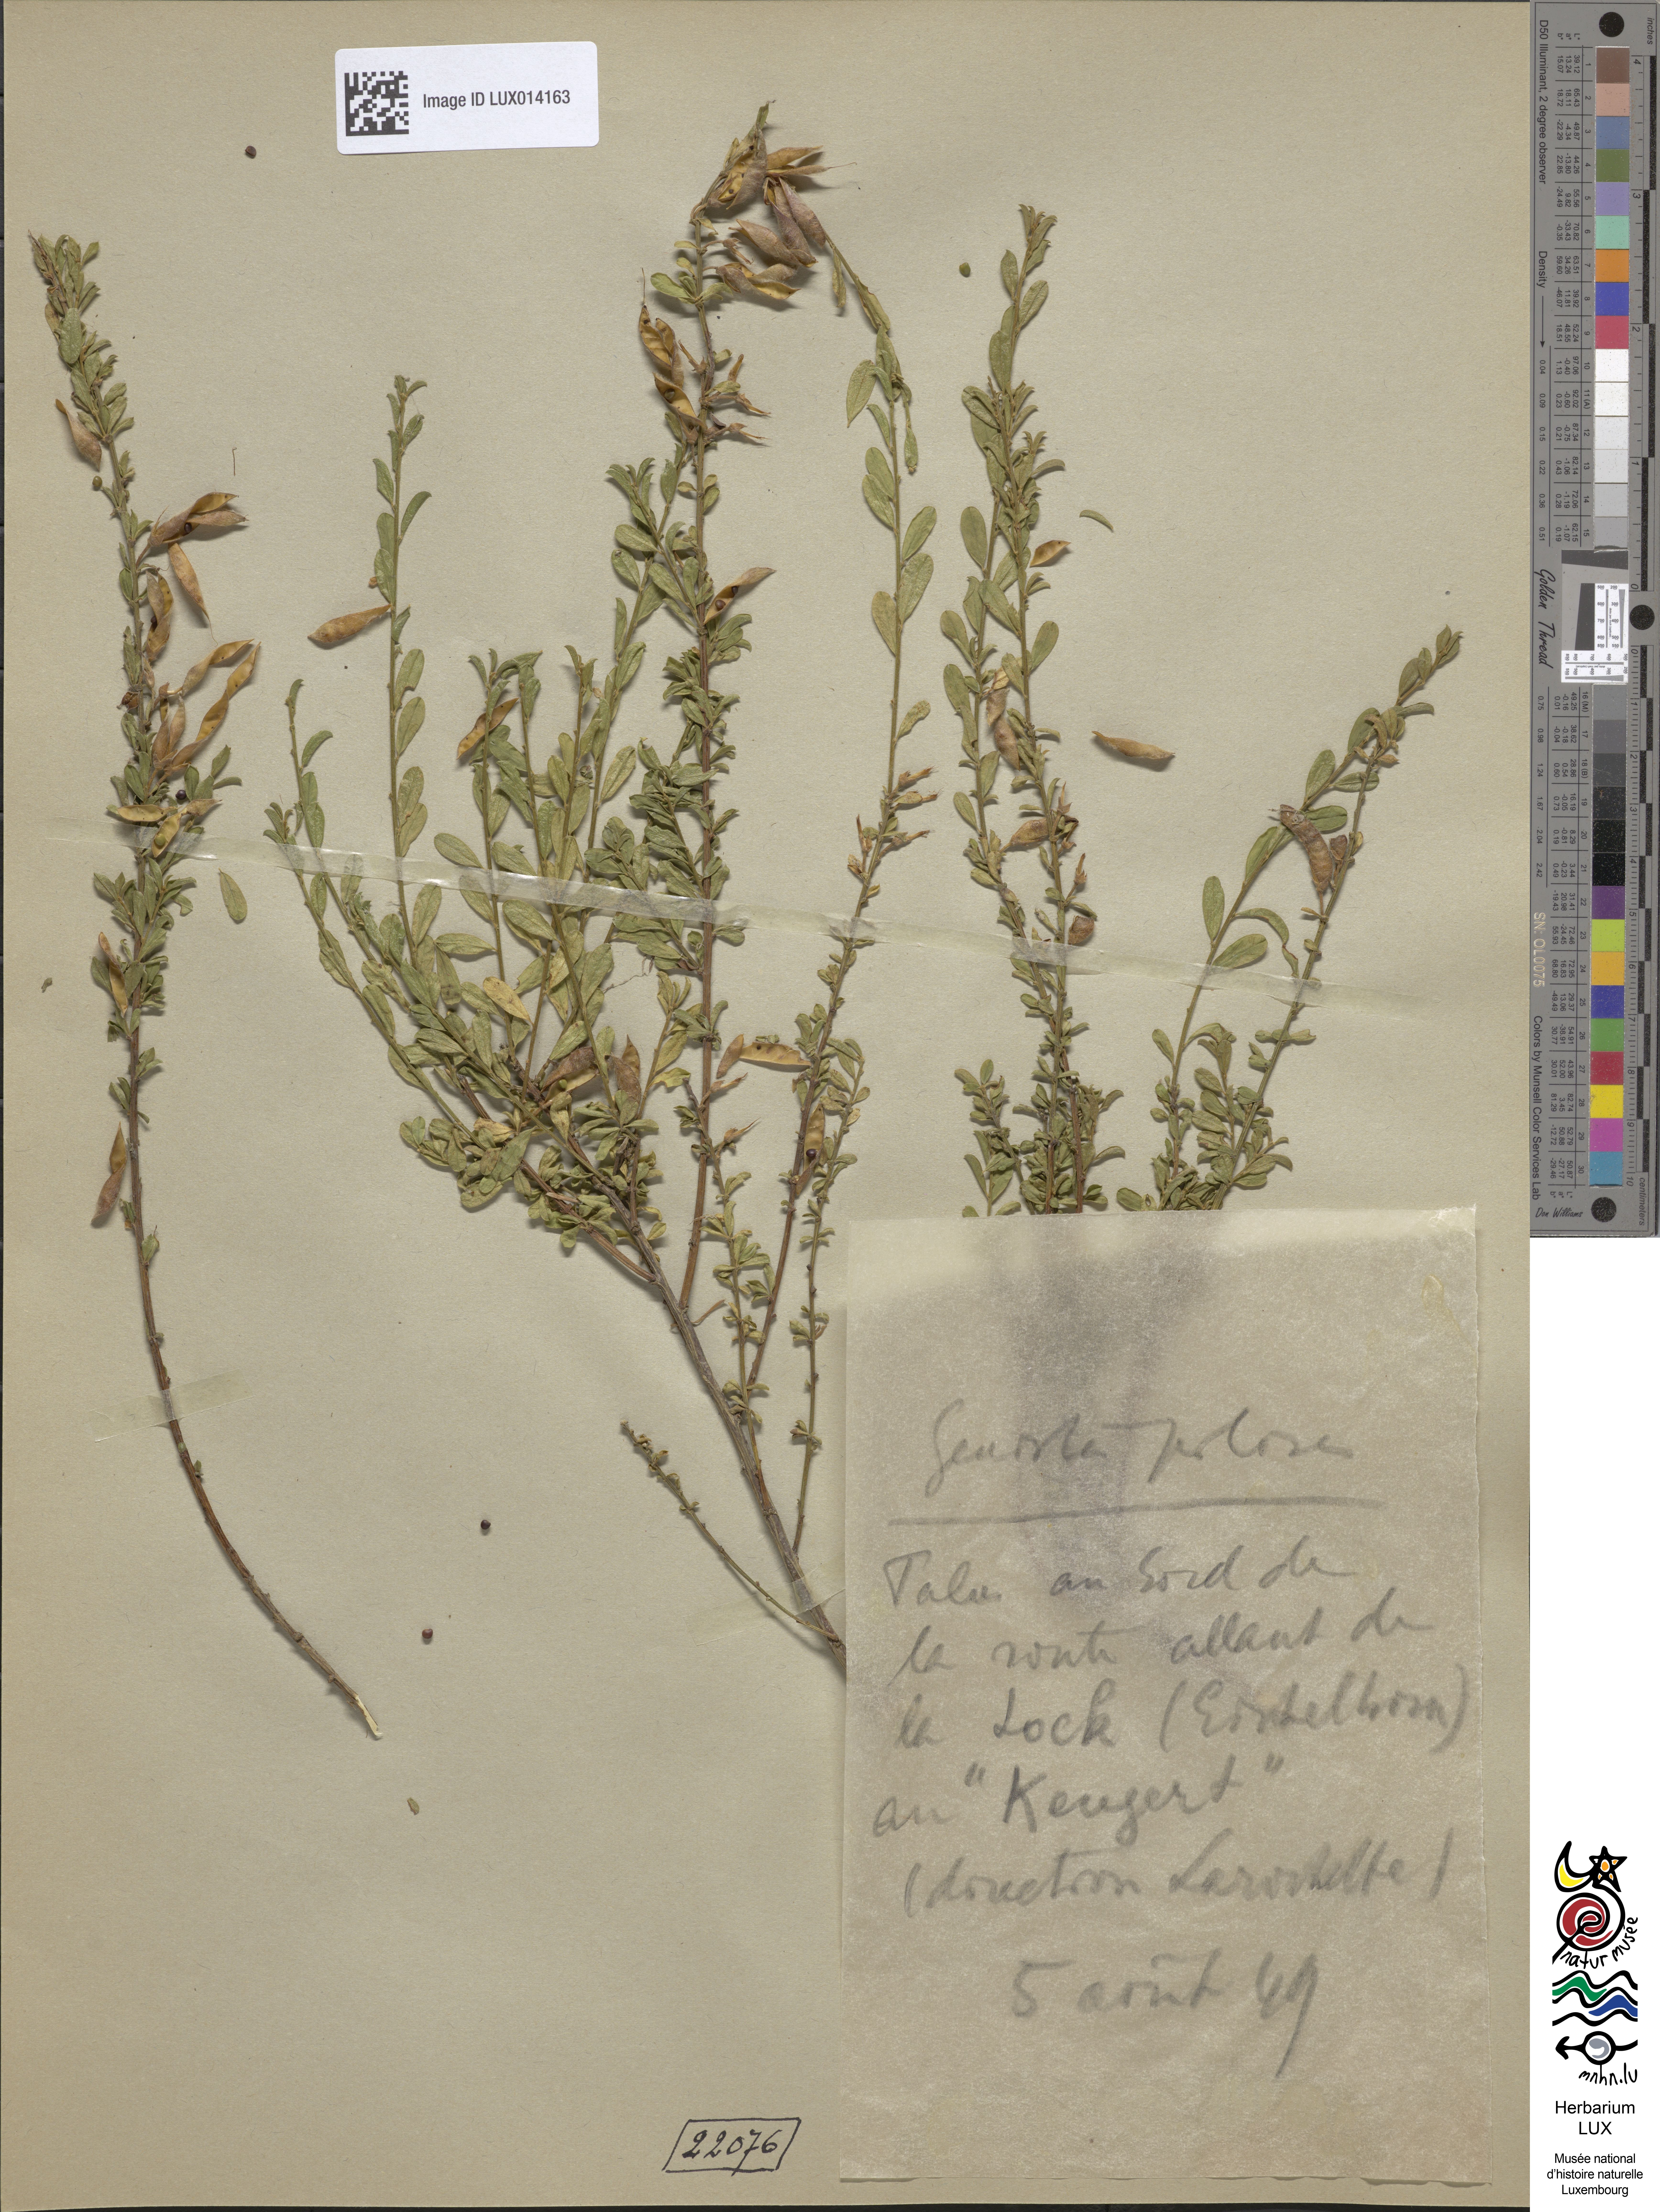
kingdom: Plantae
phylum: Tracheophyta
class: Magnoliopsida
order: Fabales
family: Fabaceae
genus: Genista
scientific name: Genista pilosa
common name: Hairy greenweed
